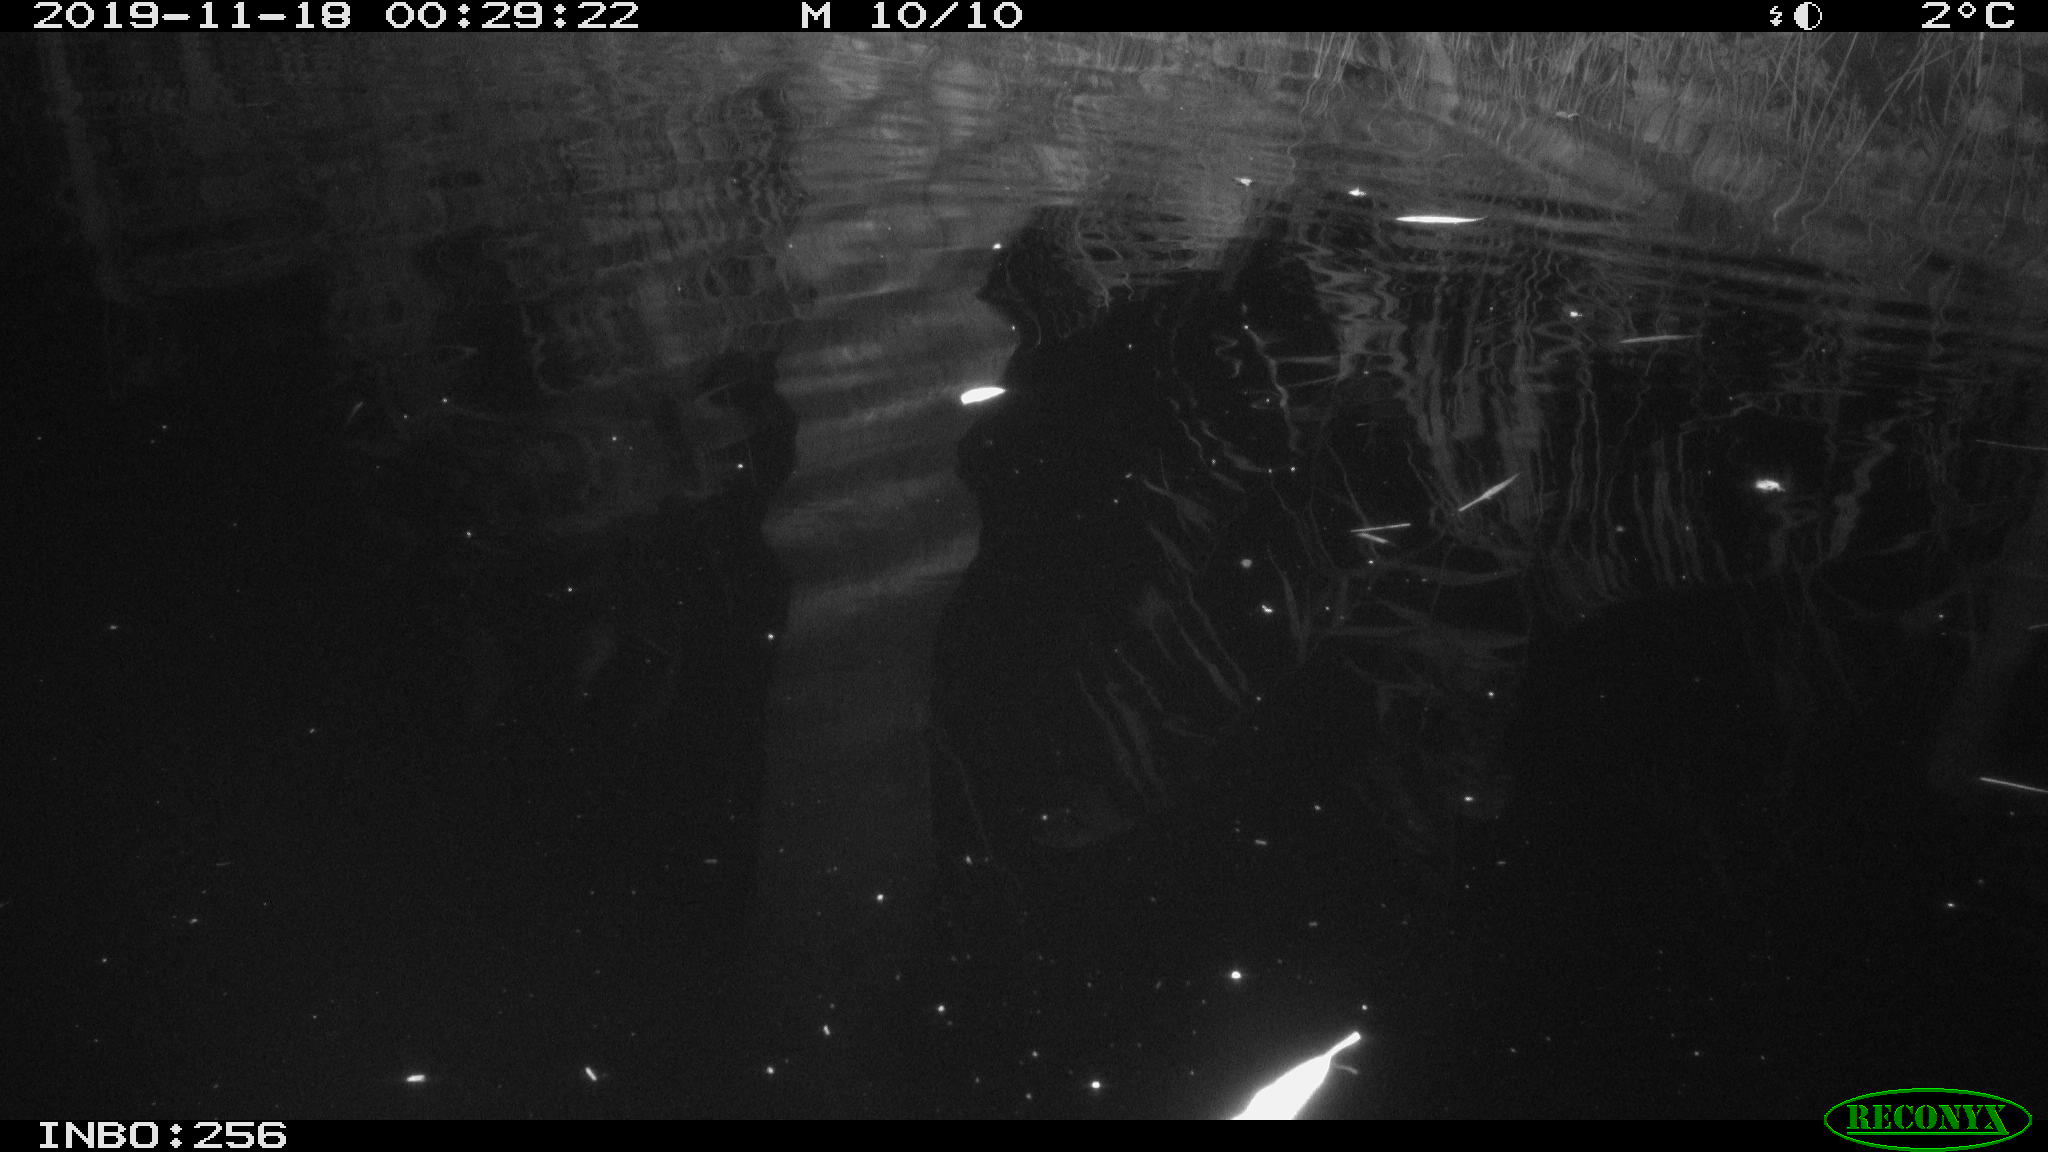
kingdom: Animalia
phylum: Chordata
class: Mammalia
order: Rodentia
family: Cricetidae
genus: Ondatra
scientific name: Ondatra zibethicus
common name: Muskrat
